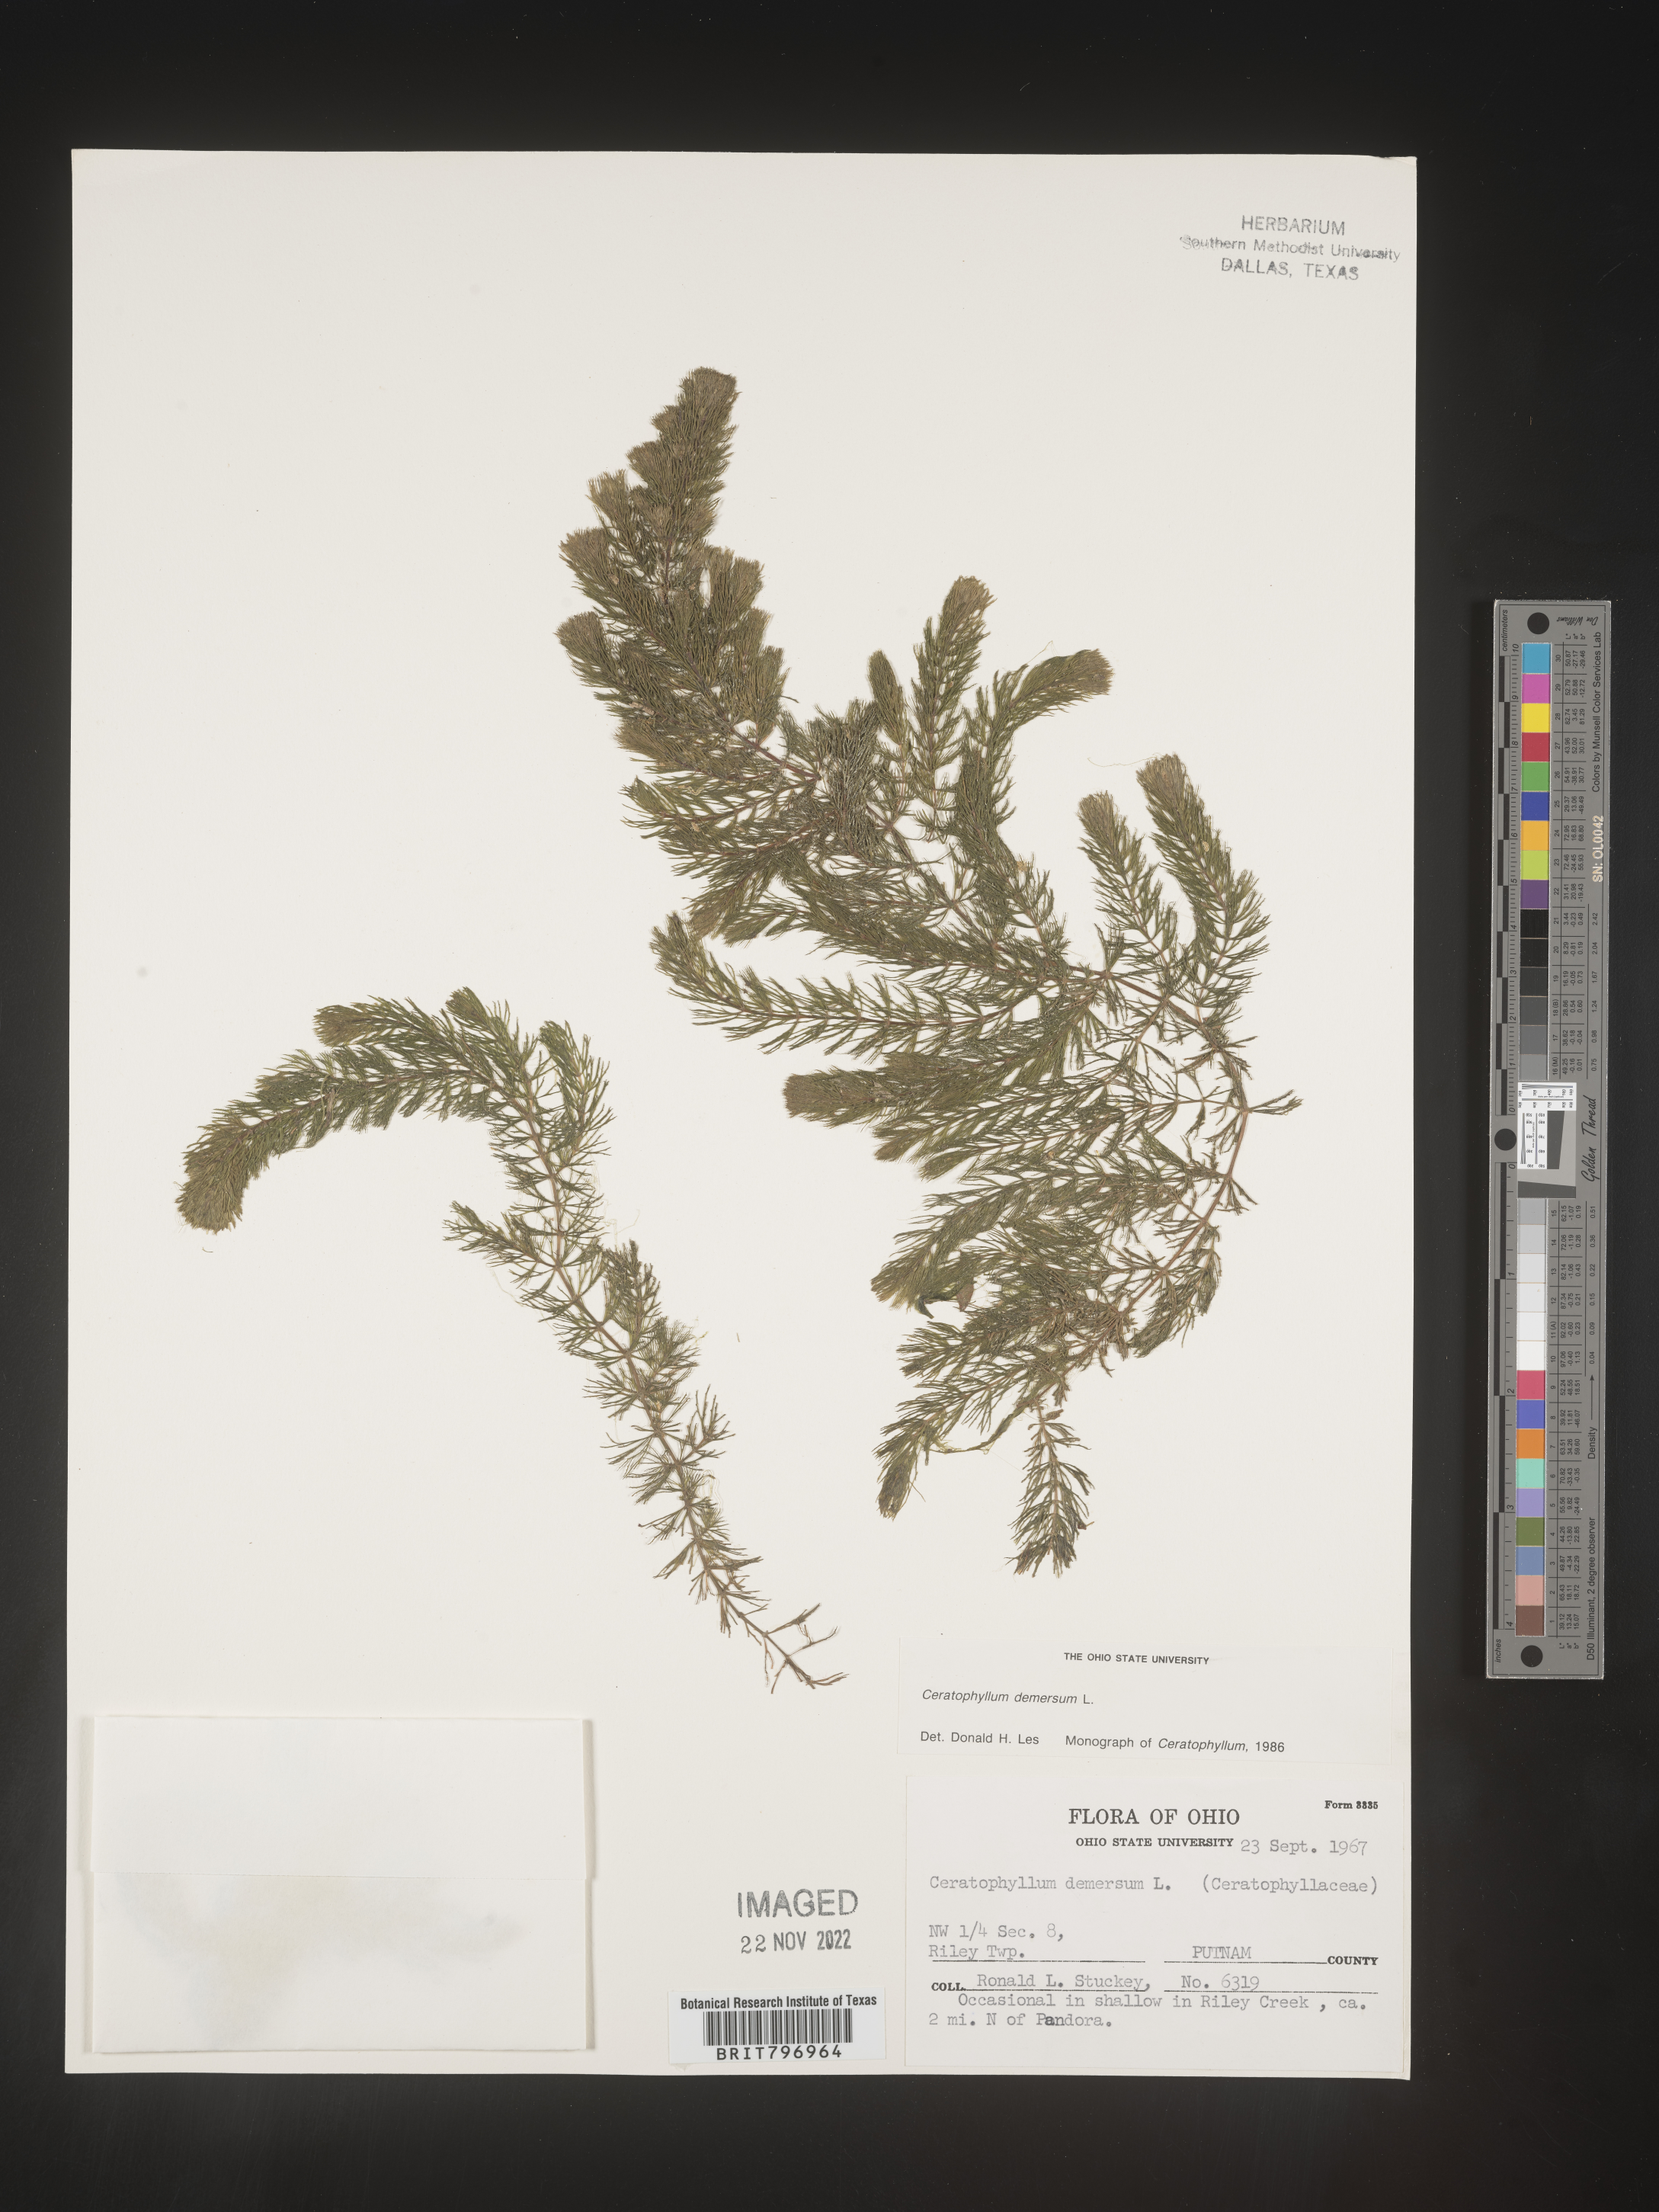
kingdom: Plantae
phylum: Tracheophyta
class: Magnoliopsida
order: Ceratophyllales
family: Ceratophyllaceae
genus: Ceratophyllum
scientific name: Ceratophyllum demersum
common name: Rigid hornwort
